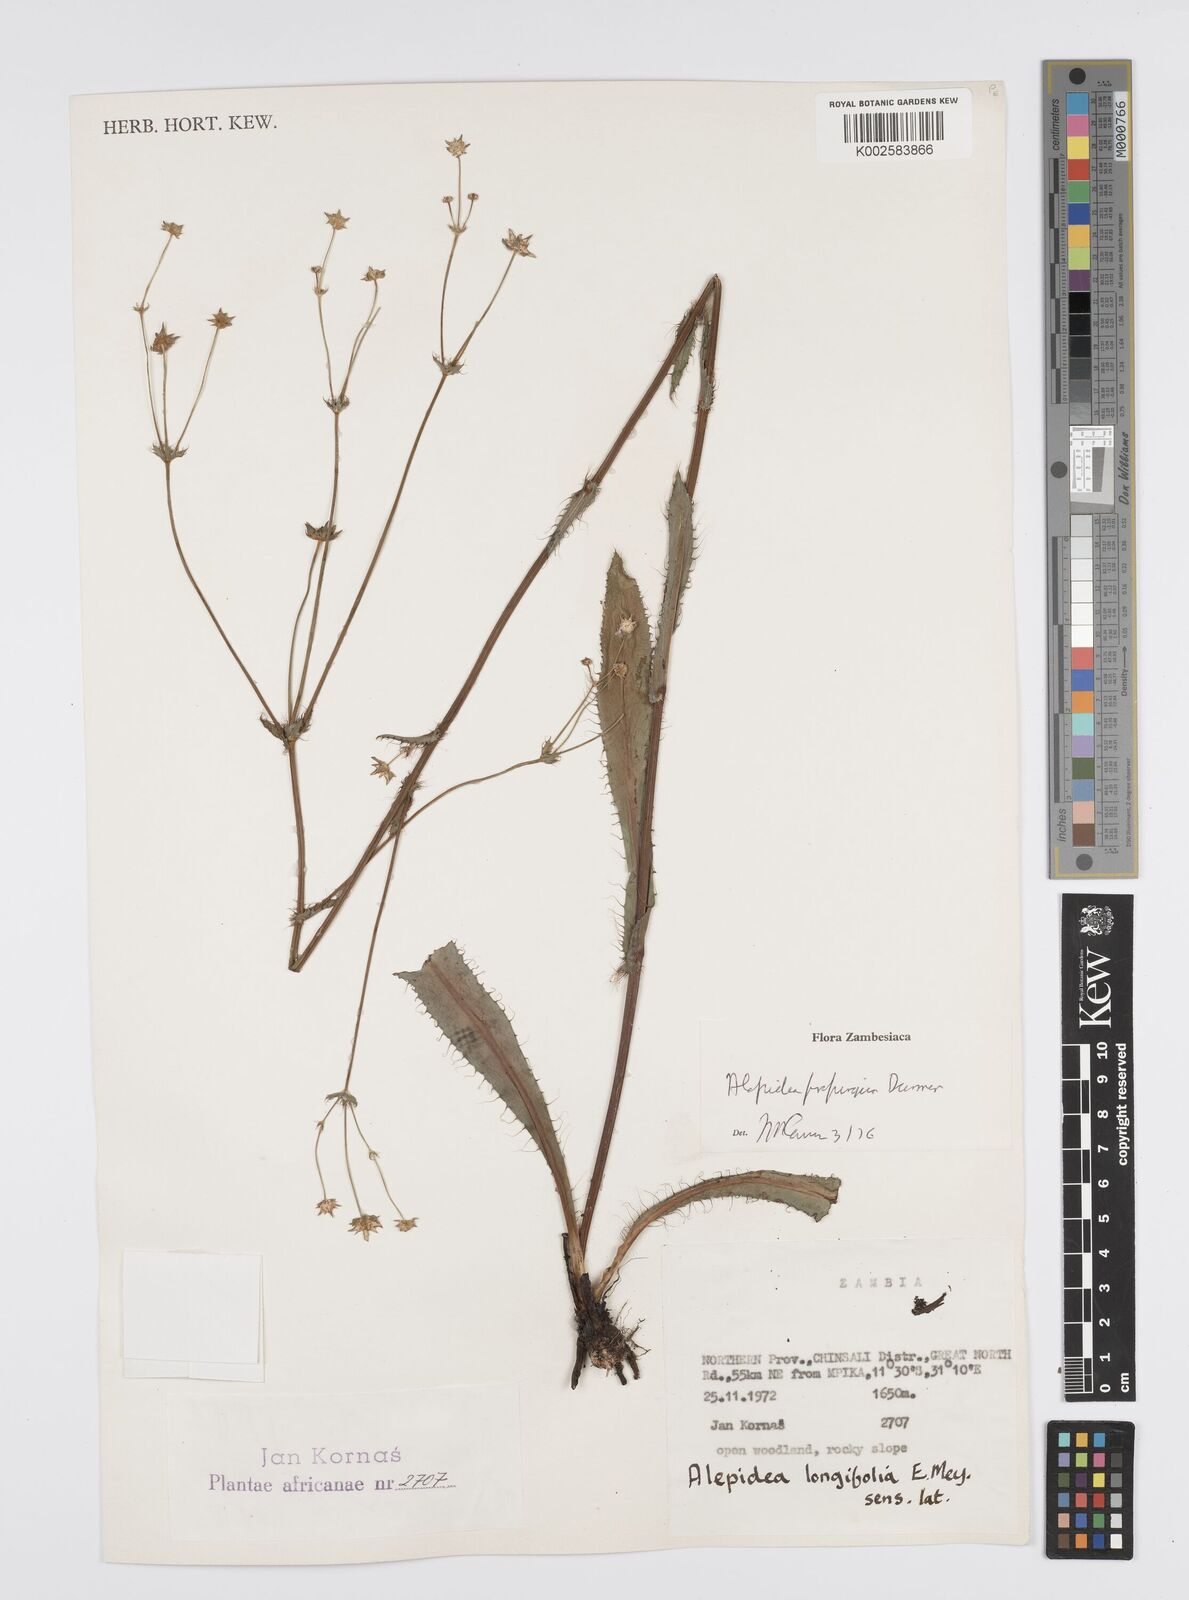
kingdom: Plantae
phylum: Tracheophyta
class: Magnoliopsida
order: Apiales
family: Apiaceae
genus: Alepidea
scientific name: Alepidea
